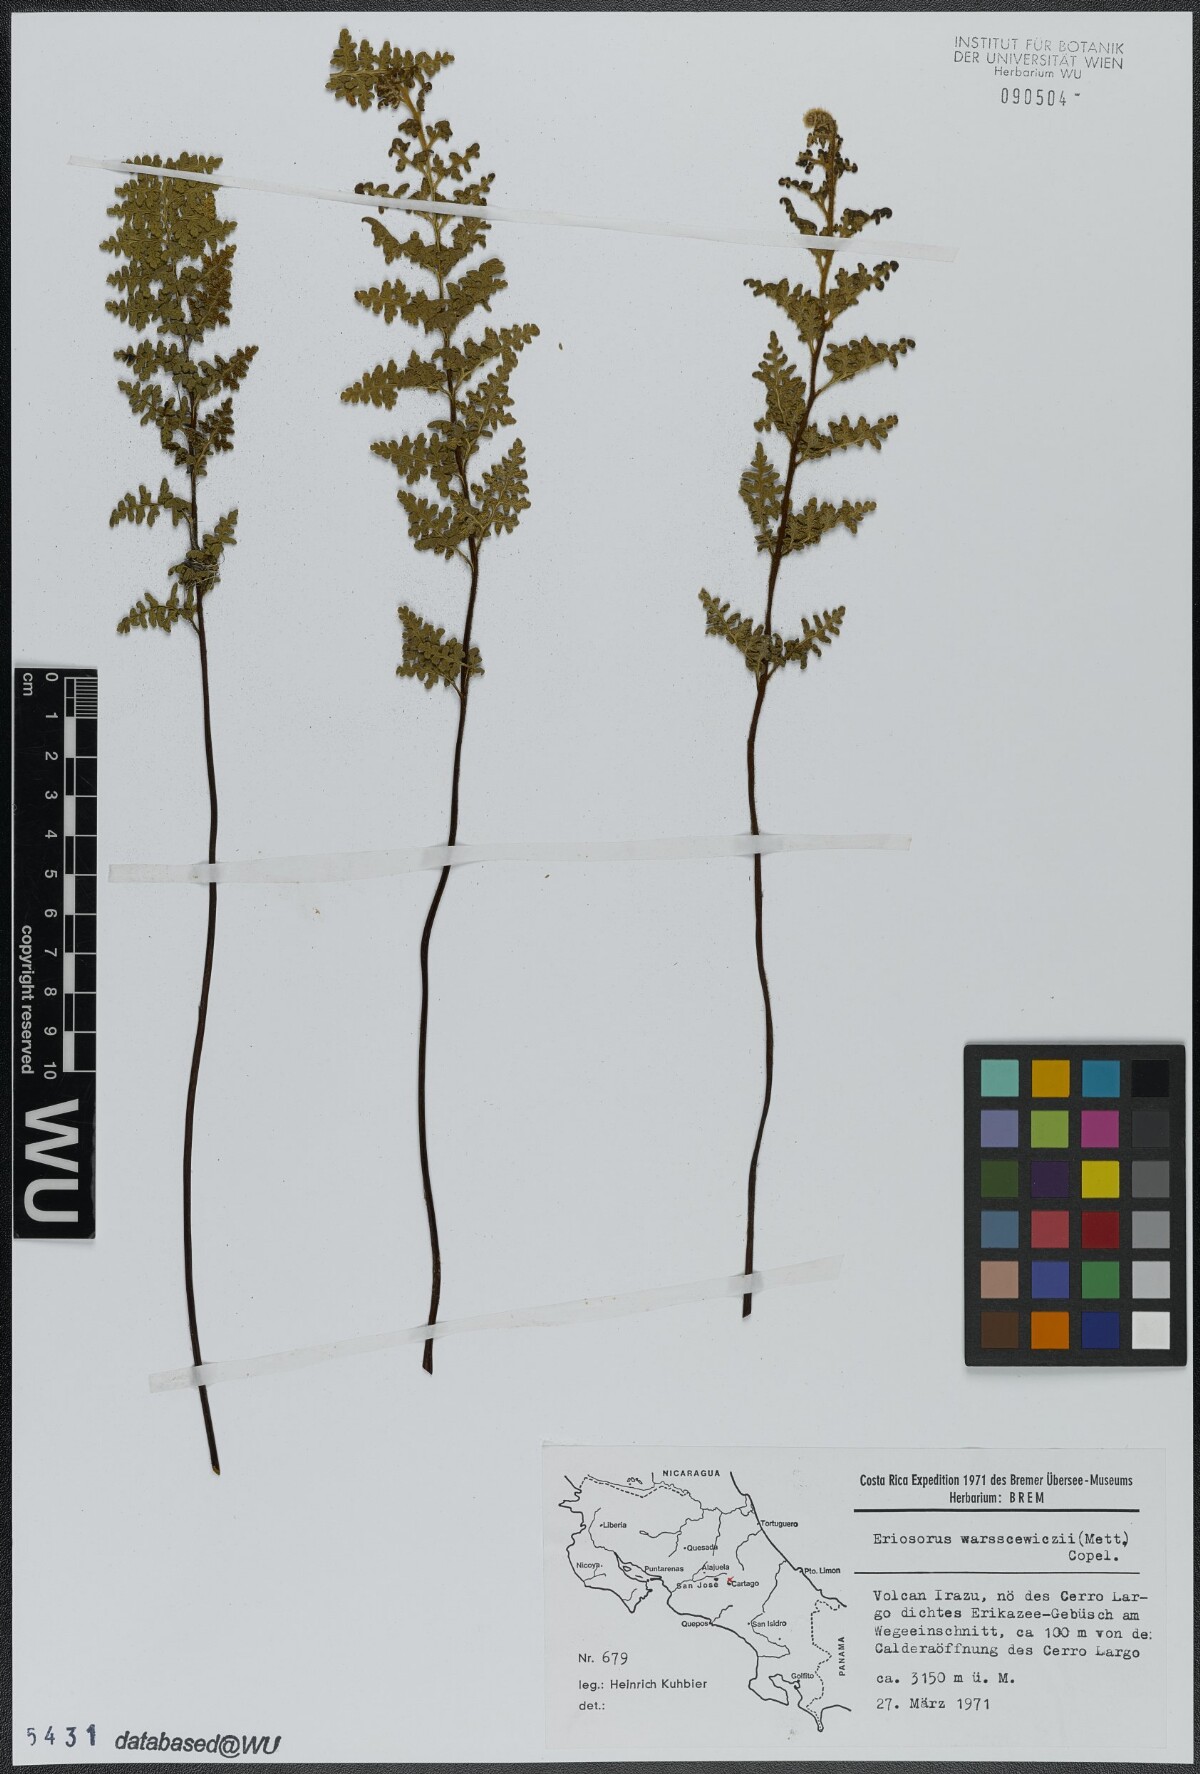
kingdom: Plantae
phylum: Tracheophyta
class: Polypodiopsida
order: Polypodiales
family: Pteridaceae
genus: Jamesonia
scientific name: Jamesonia warscewiczii
